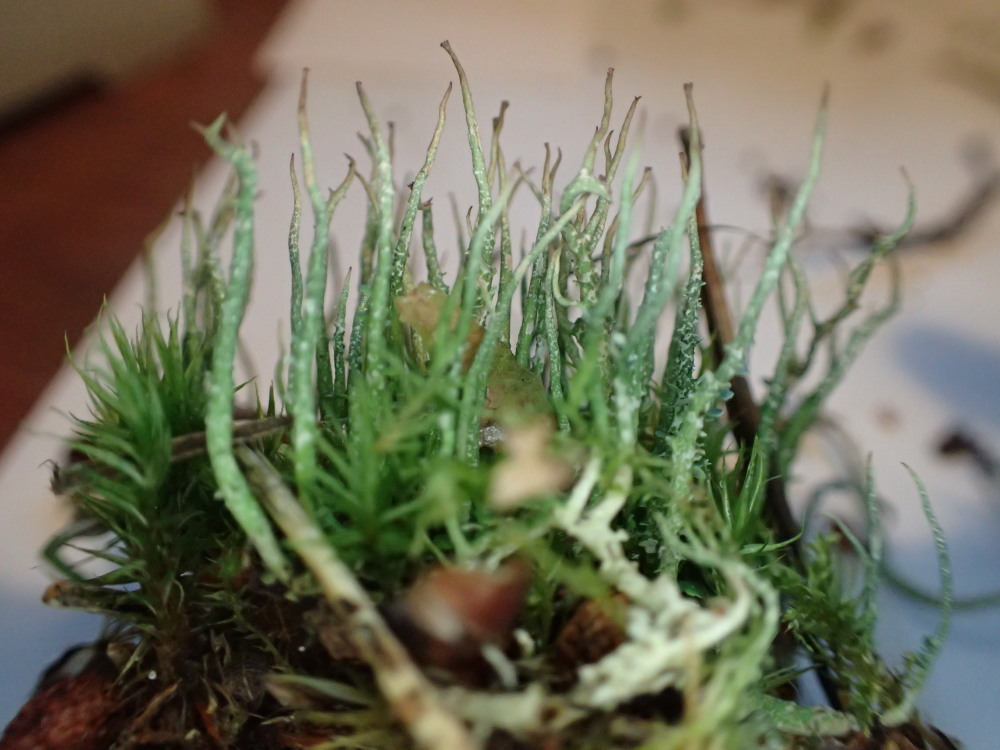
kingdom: Fungi
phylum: Ascomycota
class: Lecanoromycetes
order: Lecanorales
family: Cladoniaceae
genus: Cladonia
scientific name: Cladonia furcata
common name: kløftet bægerlav
